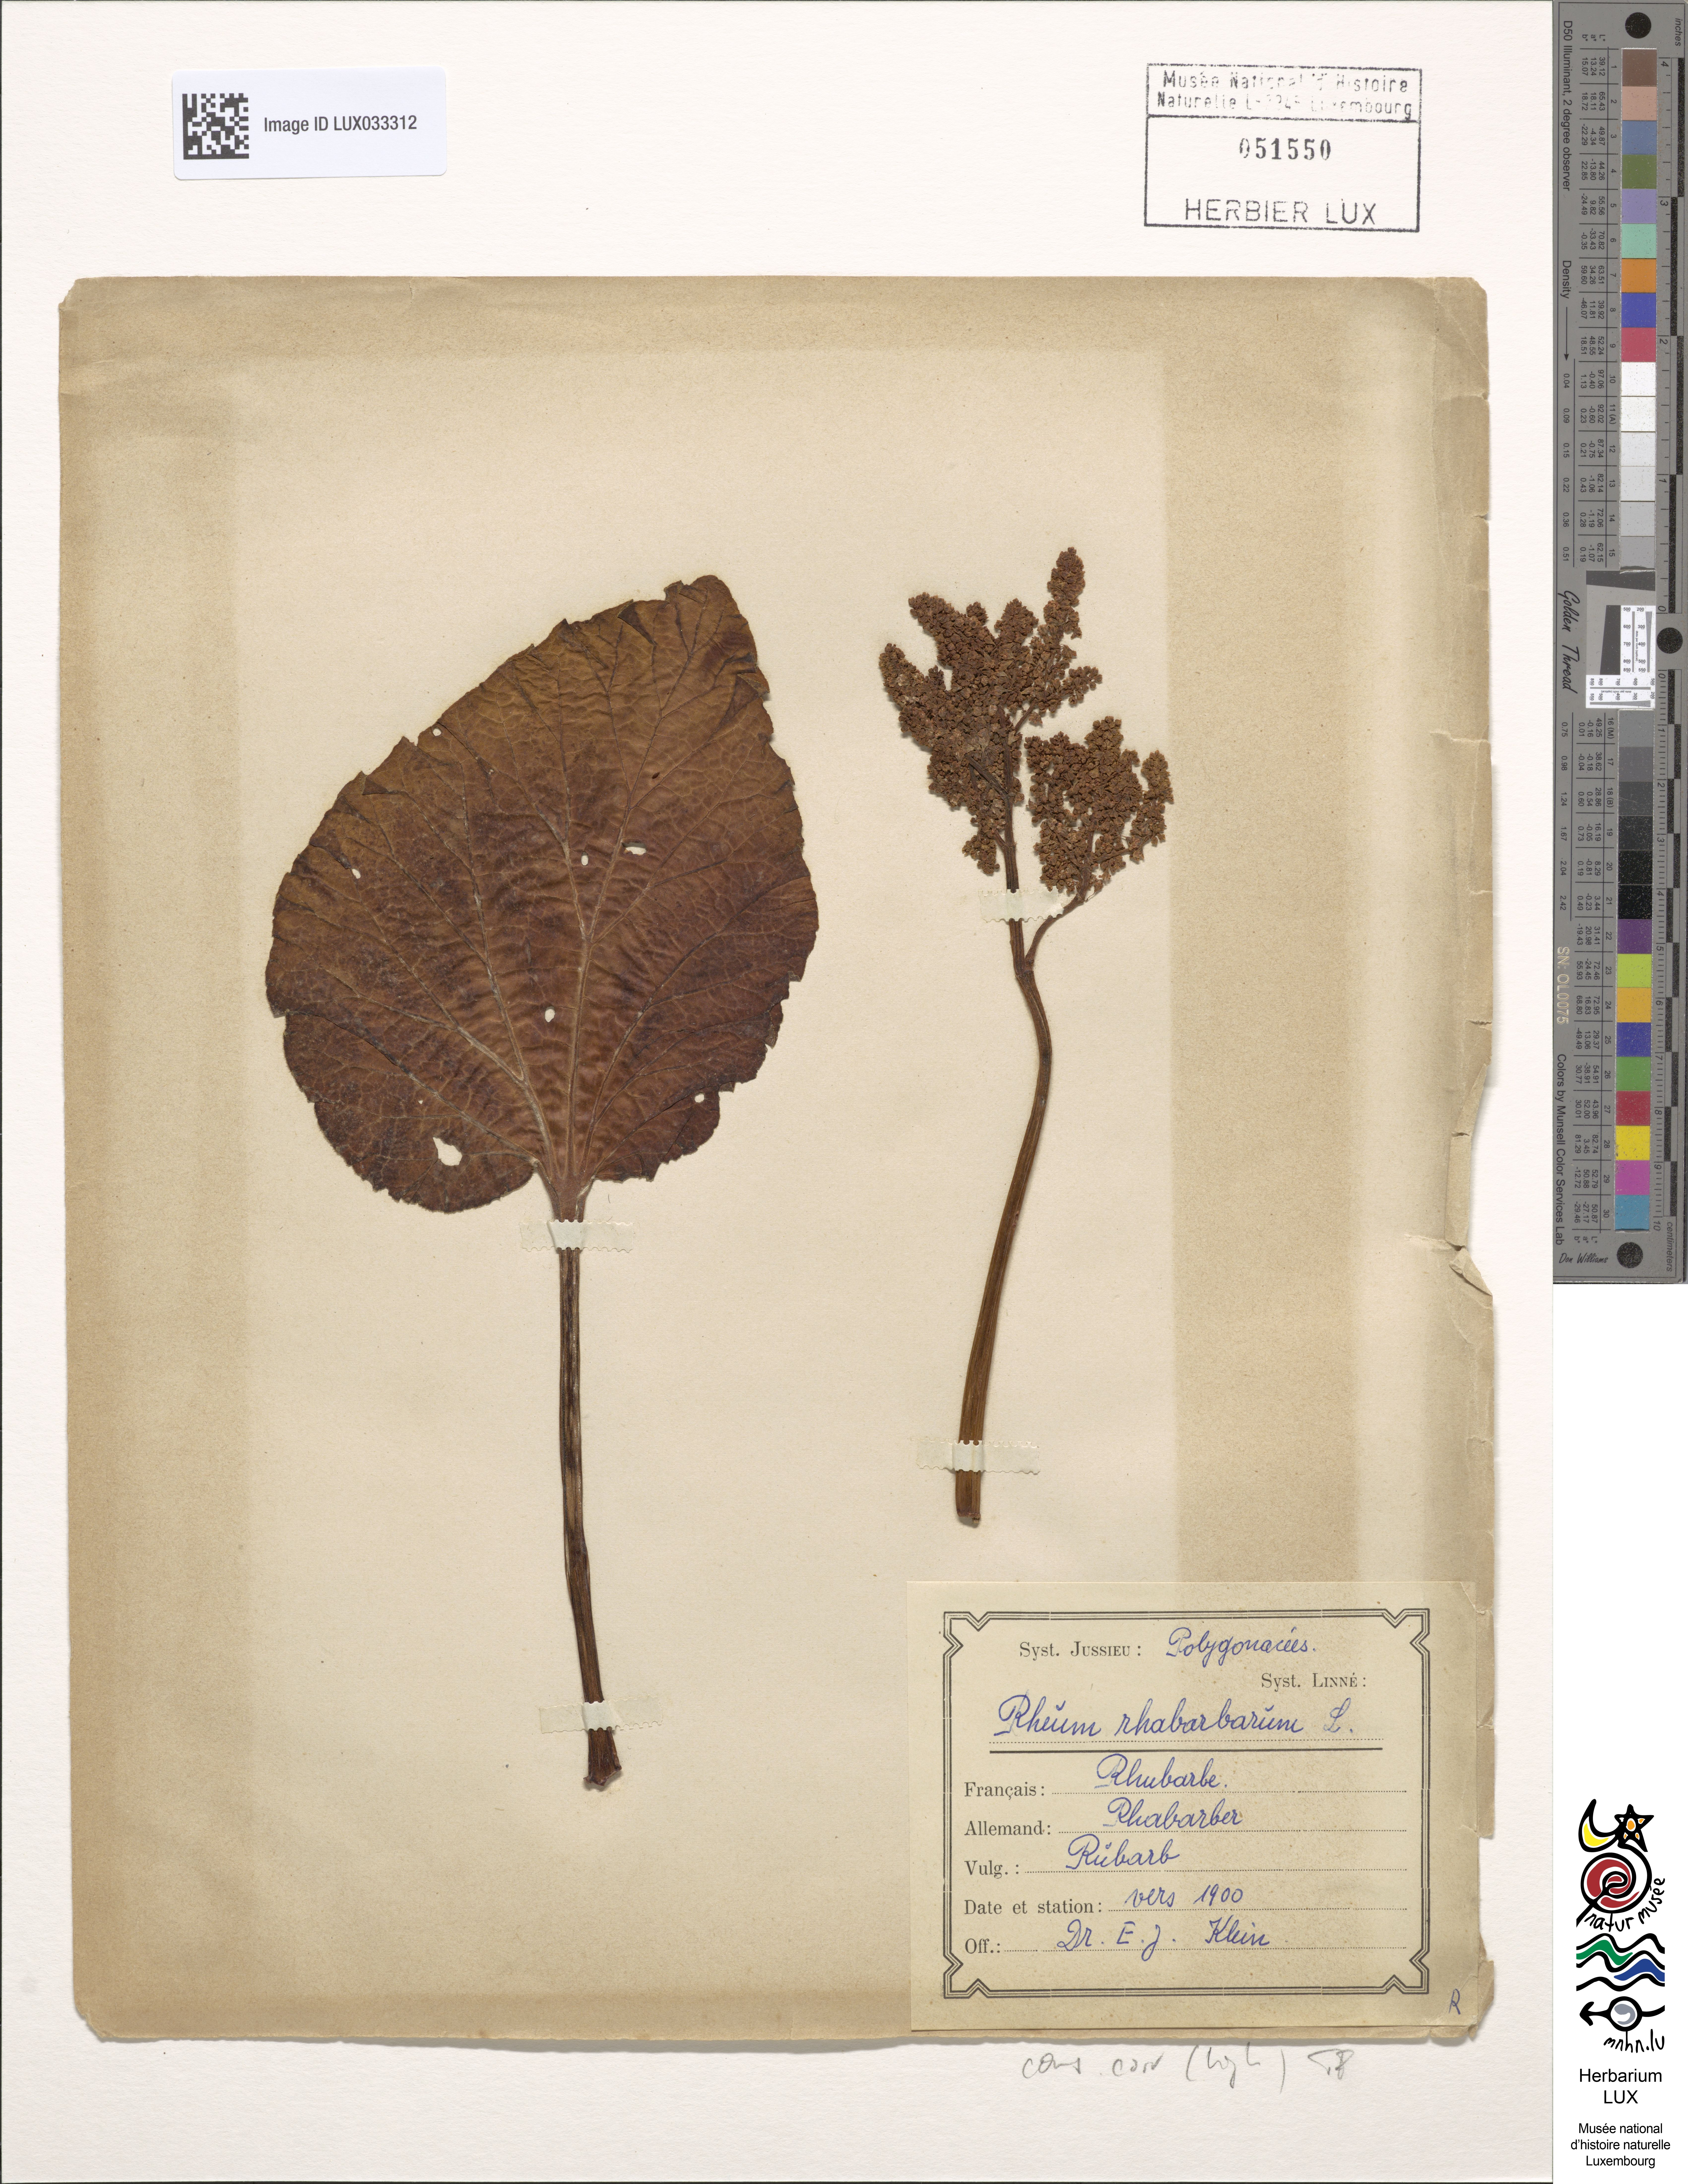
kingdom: Plantae
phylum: Tracheophyta
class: Magnoliopsida
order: Caryophyllales
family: Polygonaceae
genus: Rheum
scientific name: Rheum rhabarbarum
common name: Garden rhubarb
